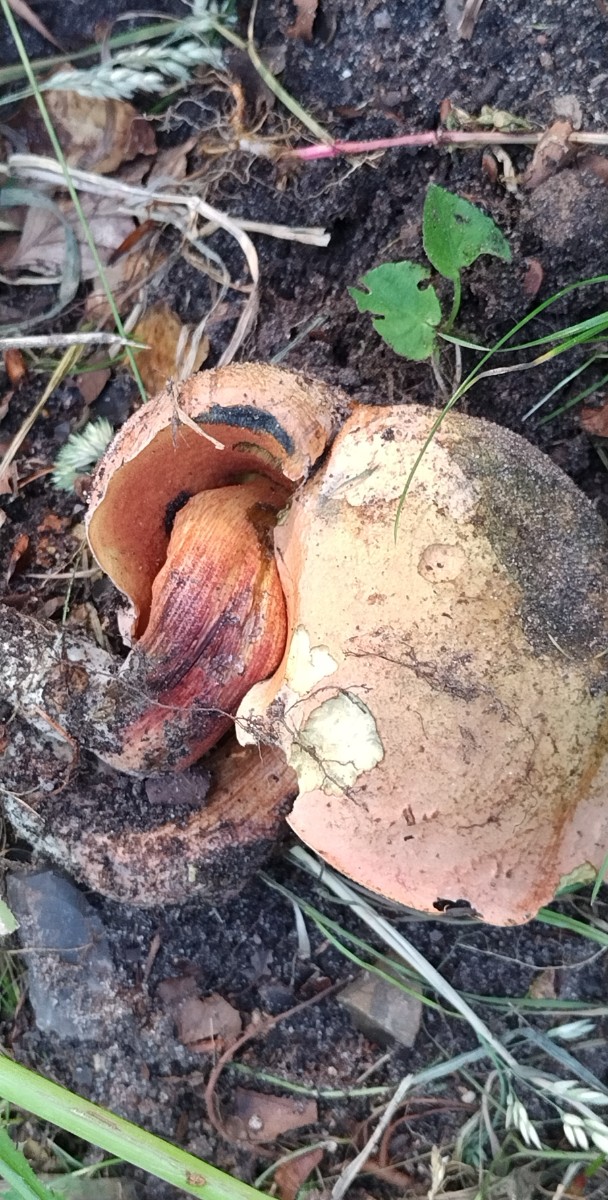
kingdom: Fungi
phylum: Basidiomycota
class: Agaricomycetes
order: Boletales
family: Boletaceae
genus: Suillellus
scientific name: Suillellus luridus
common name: netstokket indigorørhat
